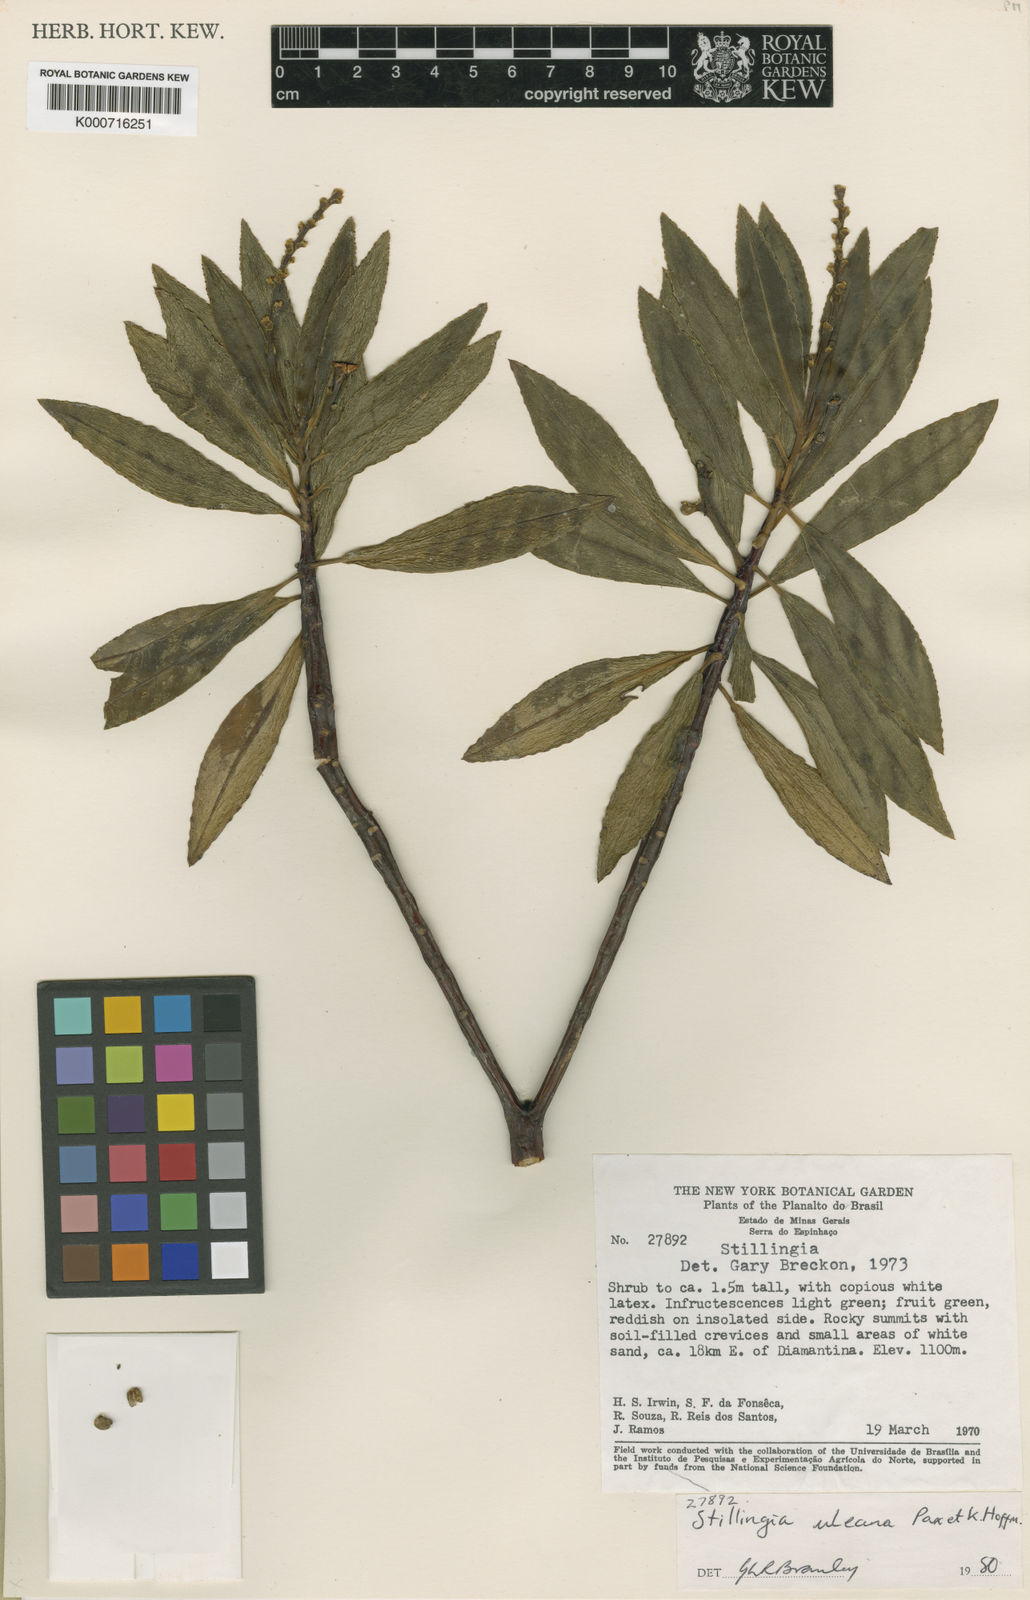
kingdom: Plantae
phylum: Tracheophyta
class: Magnoliopsida
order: Malpighiales
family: Euphorbiaceae
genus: Stillingia
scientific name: Stillingia uleana
